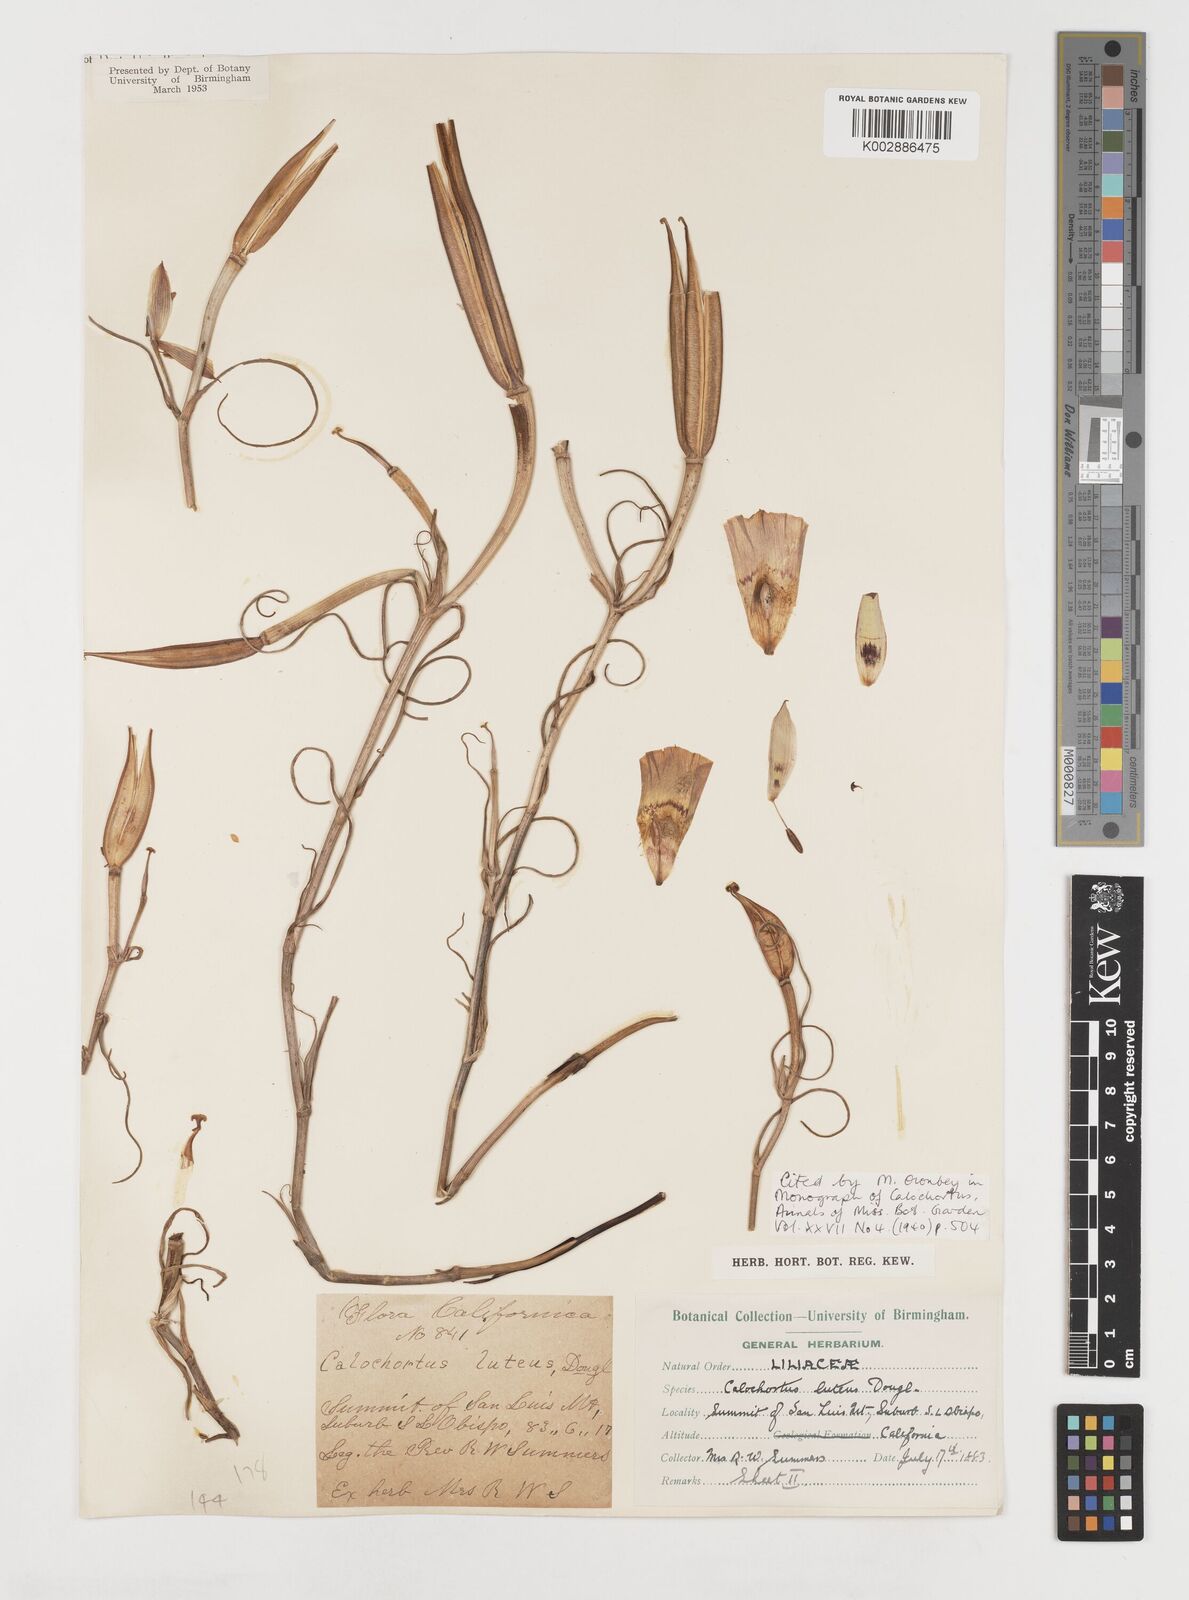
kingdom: Plantae
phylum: Tracheophyta
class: Liliopsida
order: Liliales
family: Liliaceae
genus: Calochortus
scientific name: Calochortus clavatus
